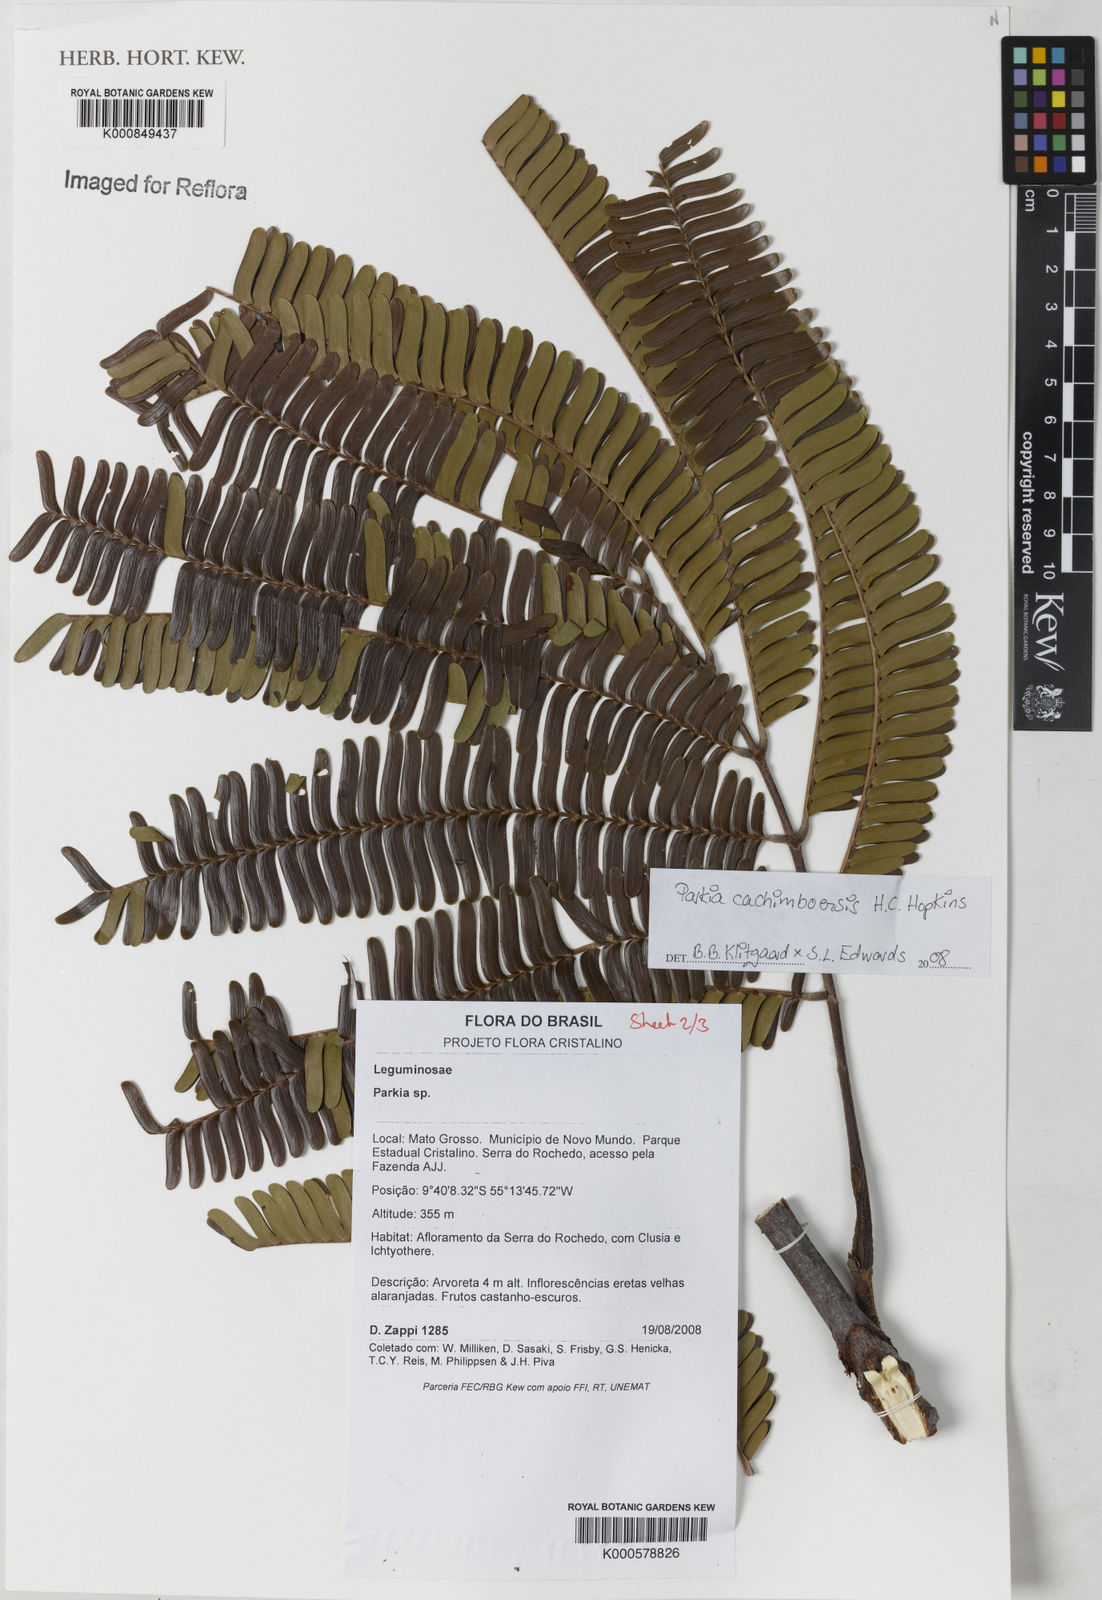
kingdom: Plantae
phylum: Tracheophyta
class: Magnoliopsida
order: Fabales
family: Fabaceae
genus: Parkia
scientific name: Parkia cachimboensis
